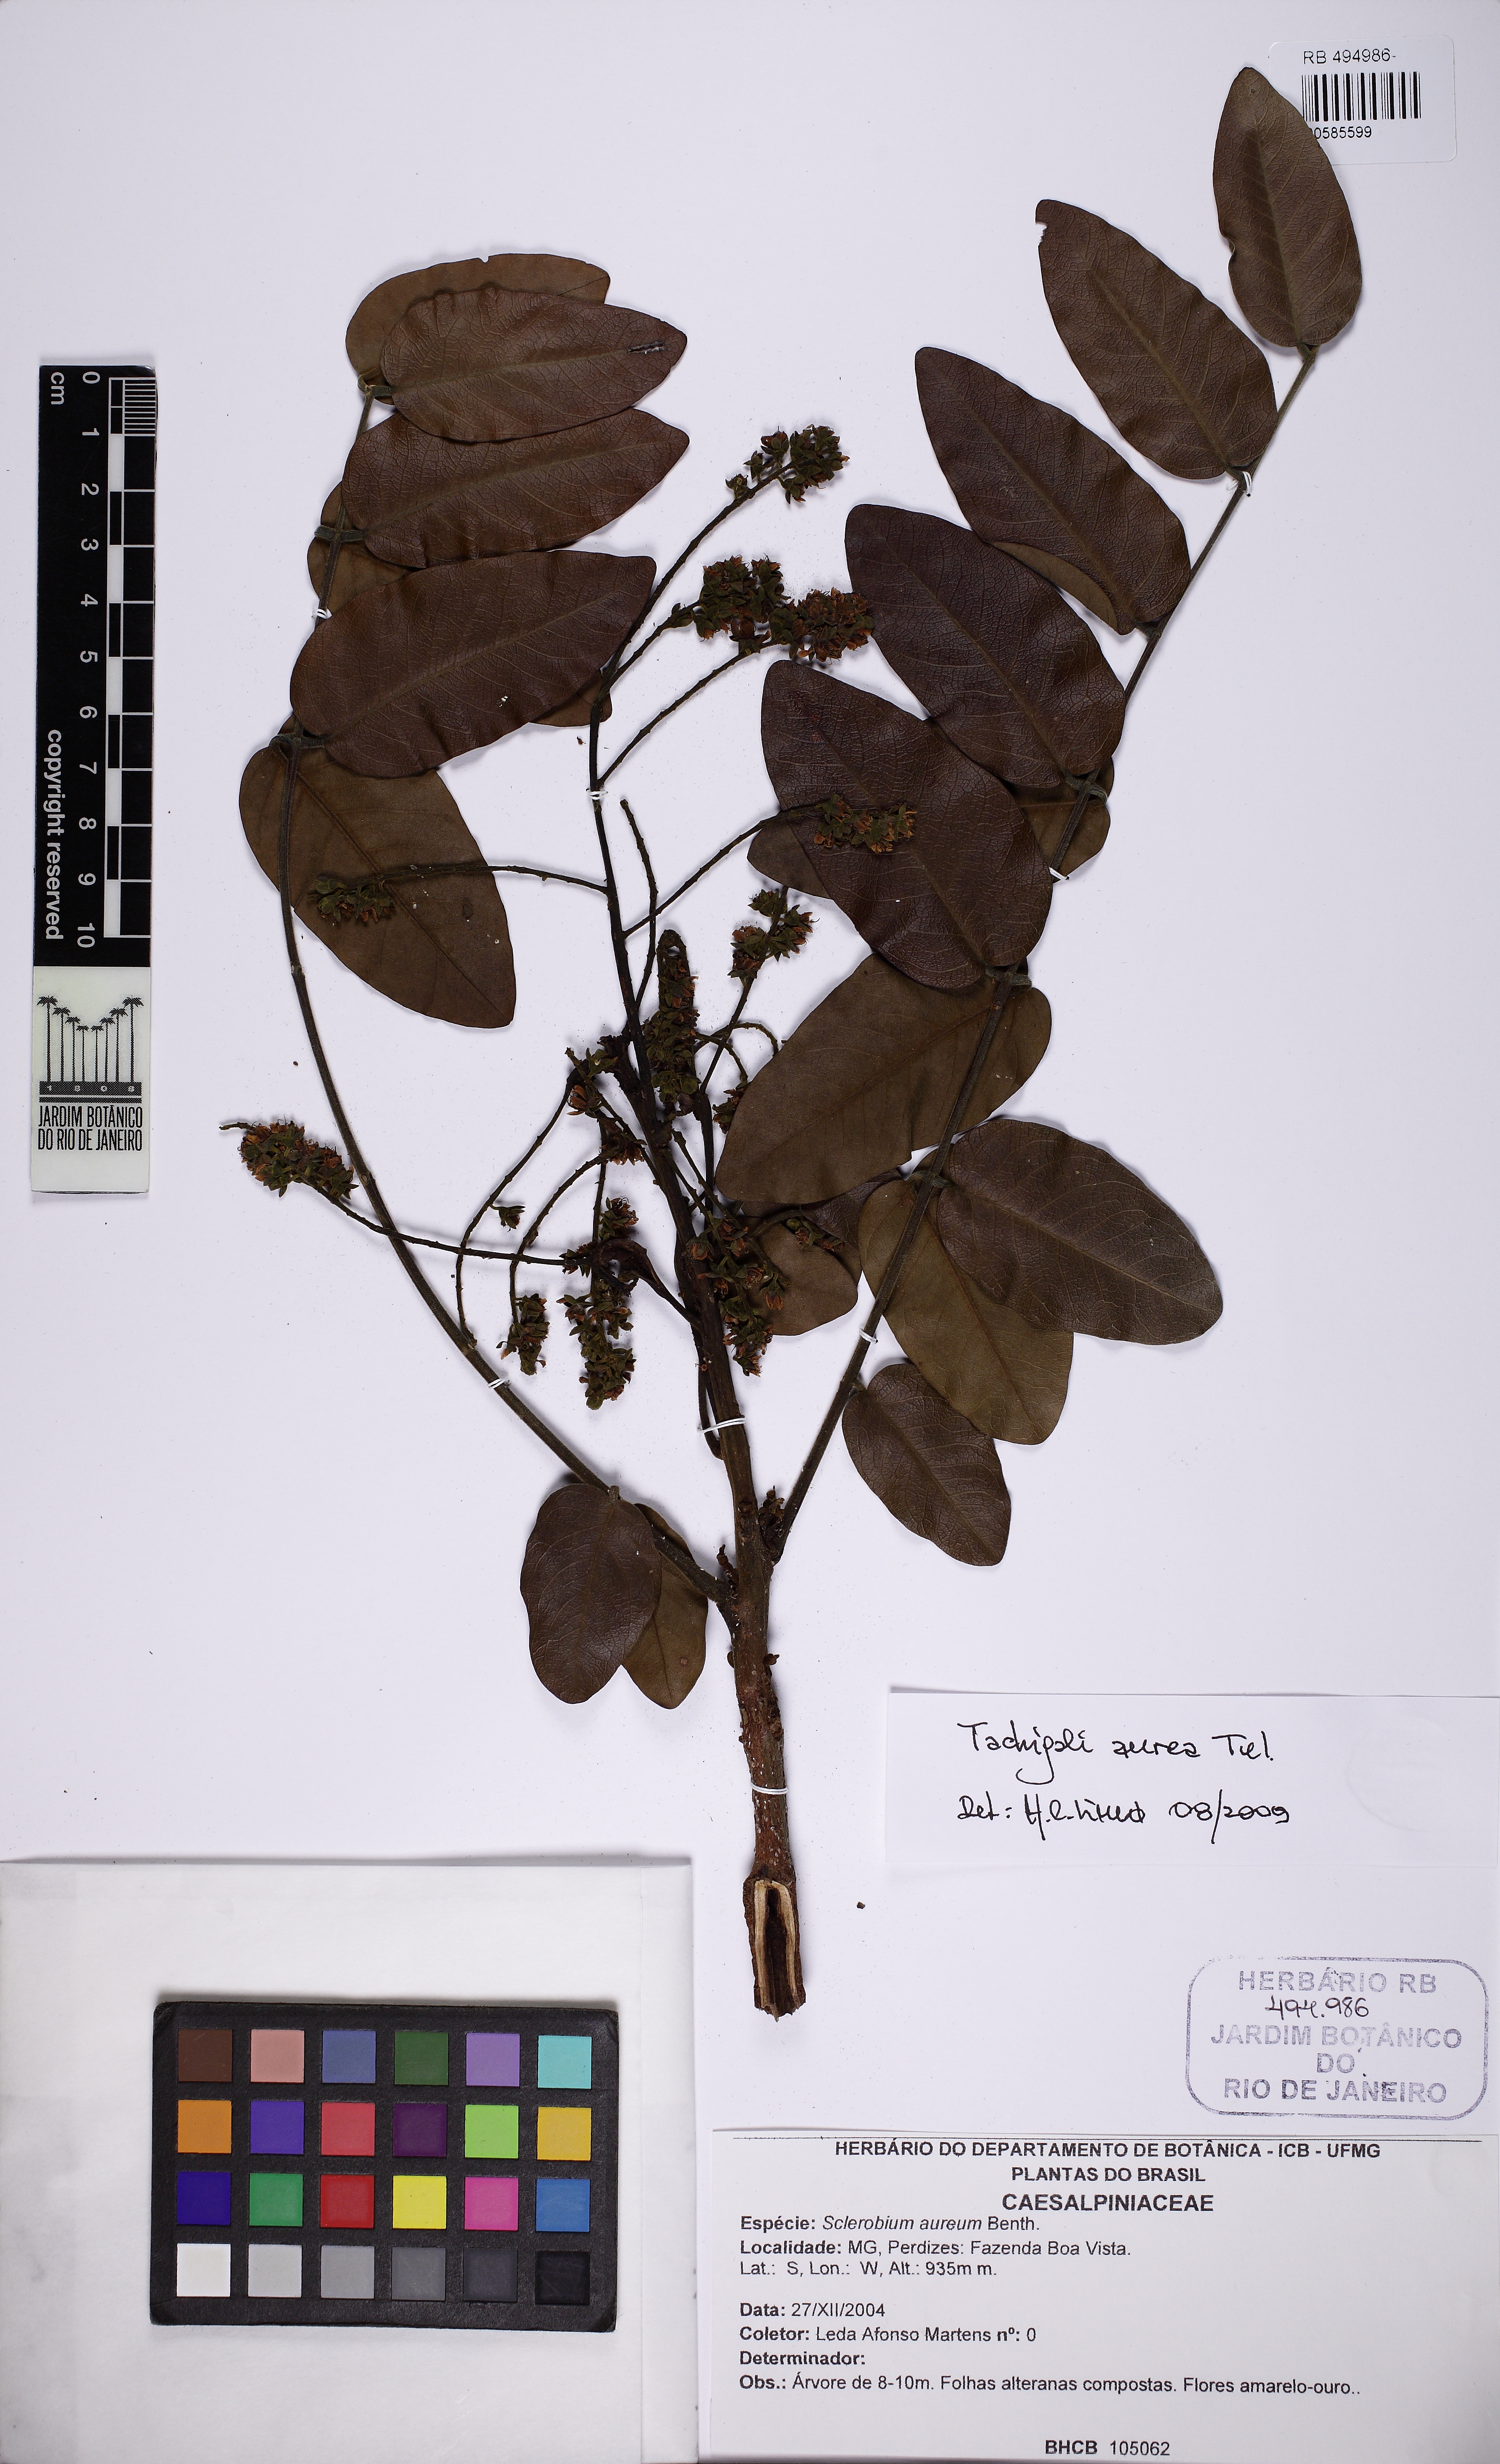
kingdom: Plantae
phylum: Tracheophyta
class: Magnoliopsida
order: Fabales
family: Fabaceae
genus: Tachigali
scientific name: Tachigali aurea
